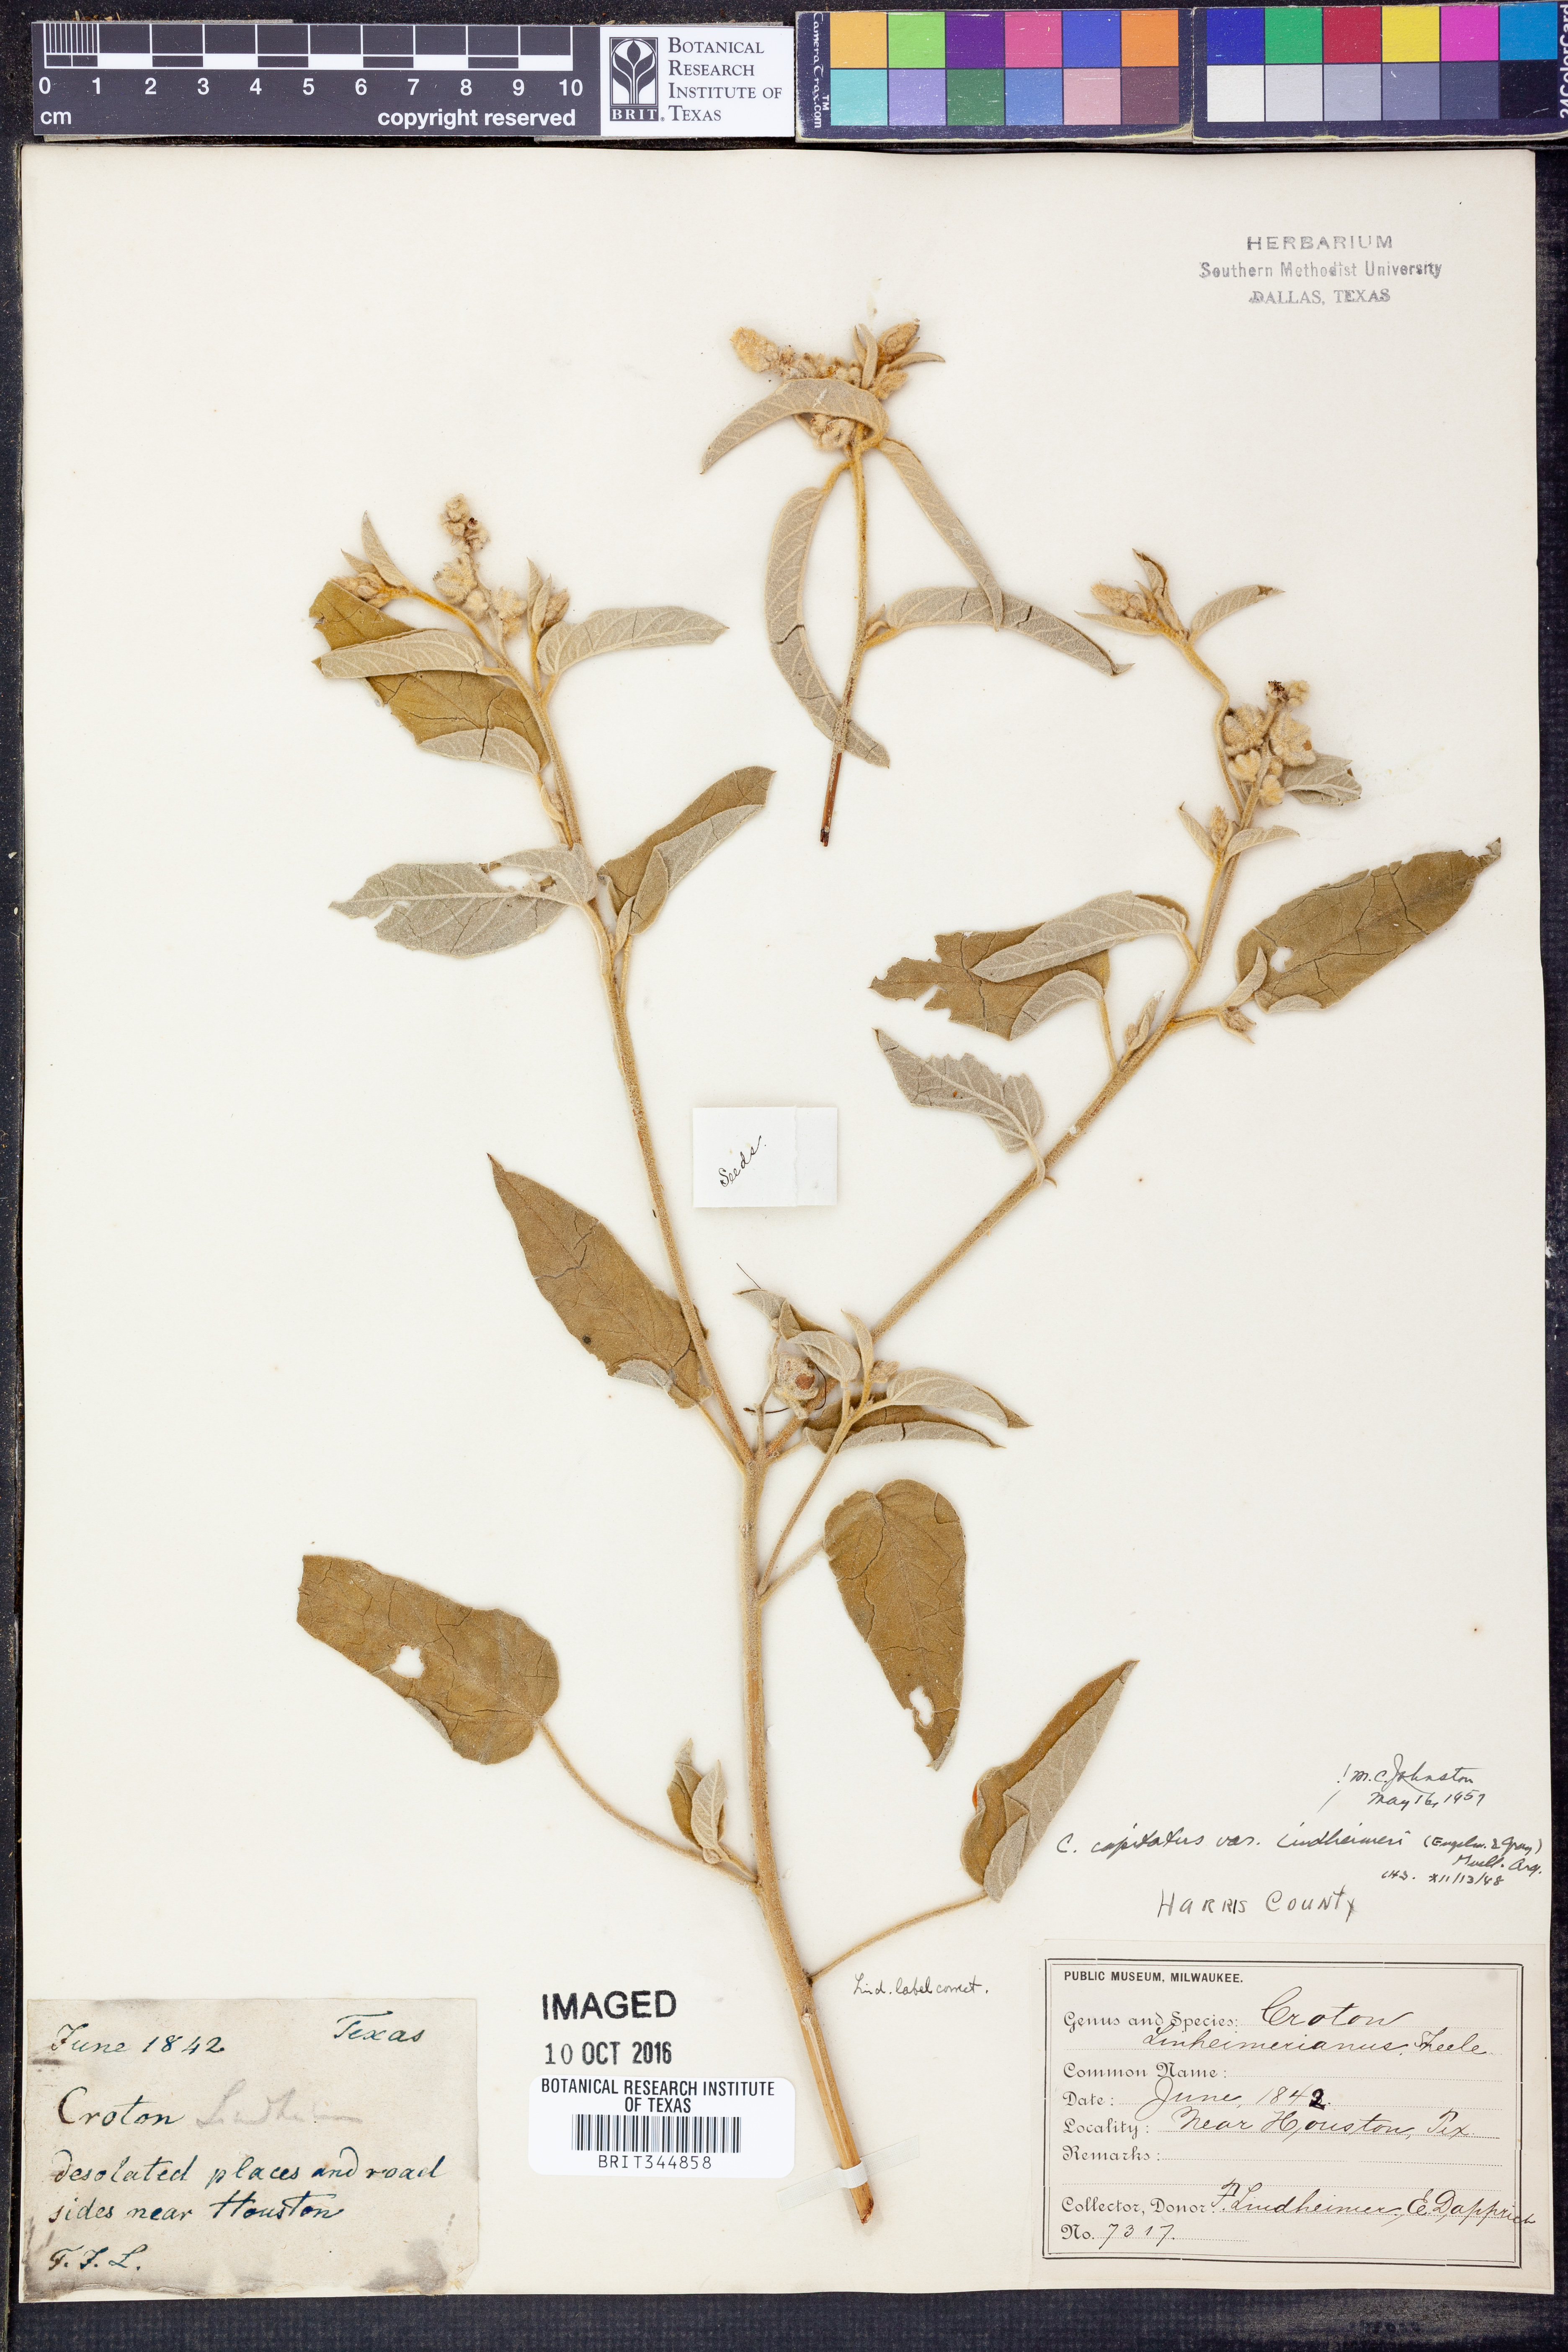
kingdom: Plantae
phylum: Tracheophyta
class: Magnoliopsida
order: Malpighiales
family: Euphorbiaceae
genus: Croton
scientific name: Croton lindheimeri
